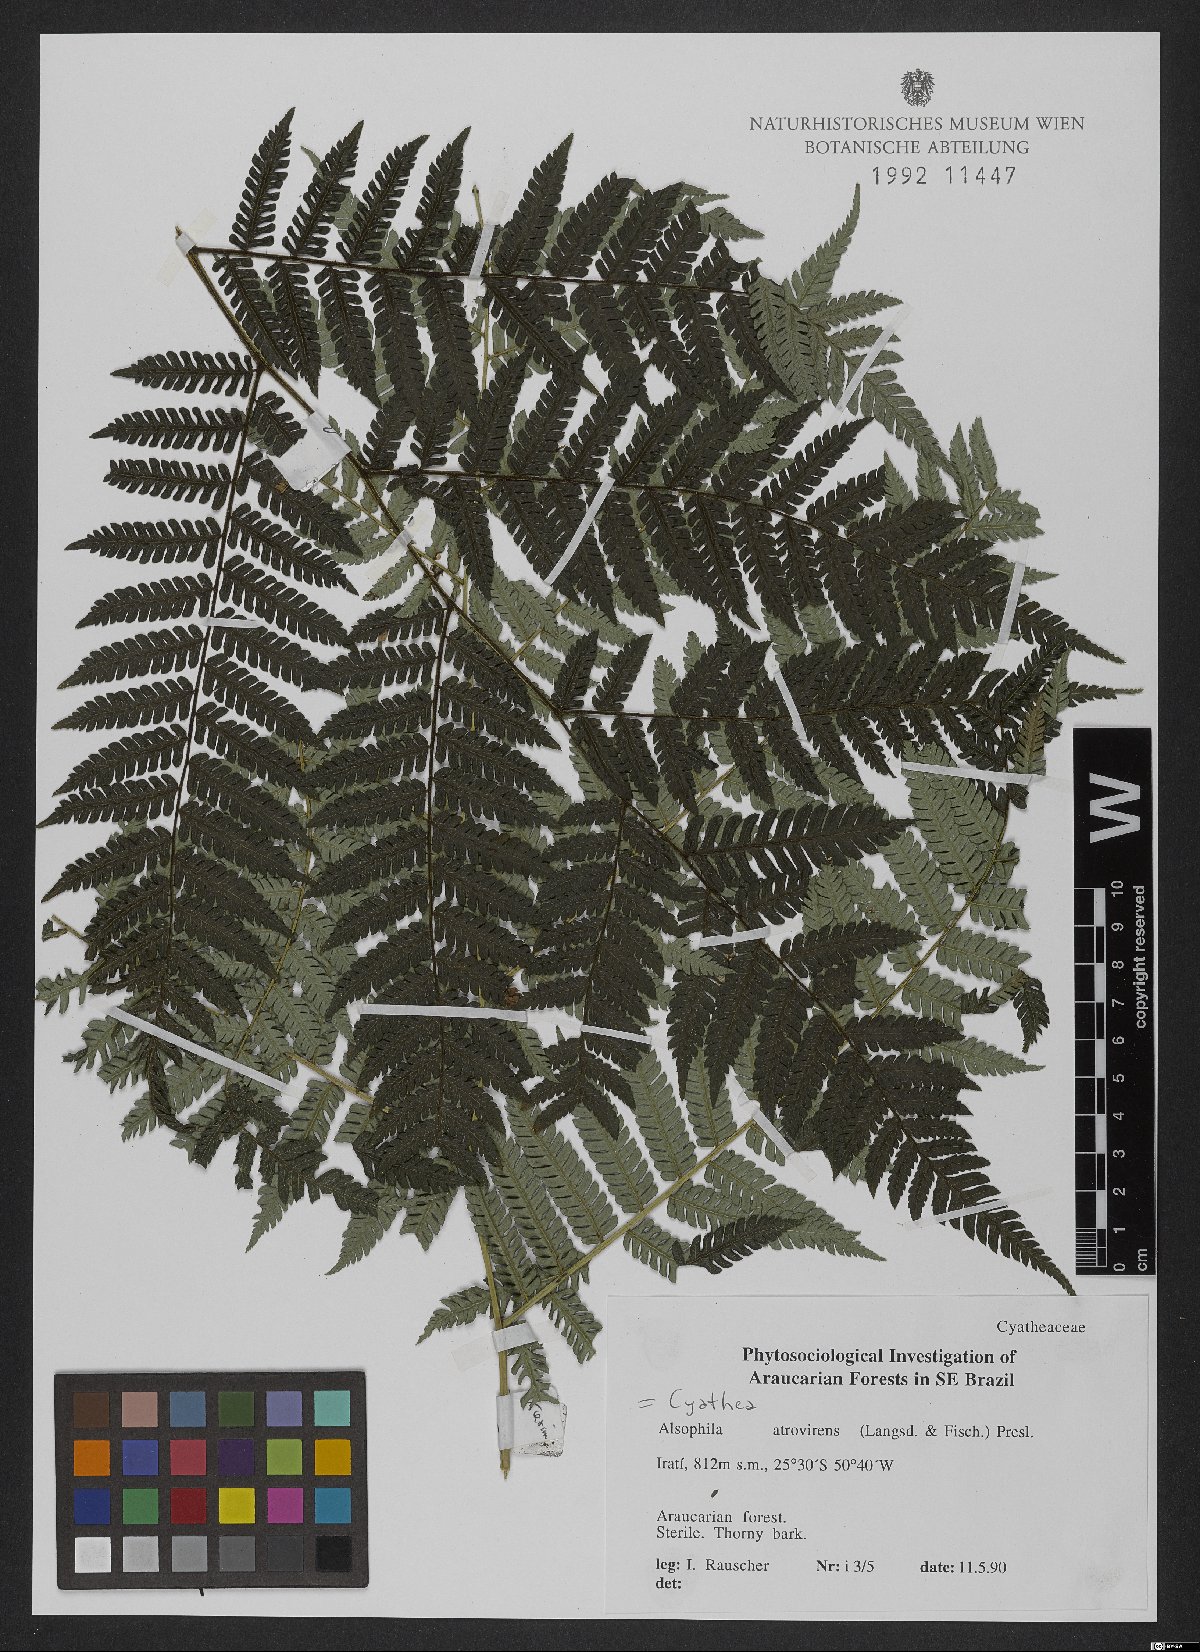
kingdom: Plantae
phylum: Tracheophyta
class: Polypodiopsida
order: Cyatheales
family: Cyatheaceae
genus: Cyathea
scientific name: Cyathea atrovirens
